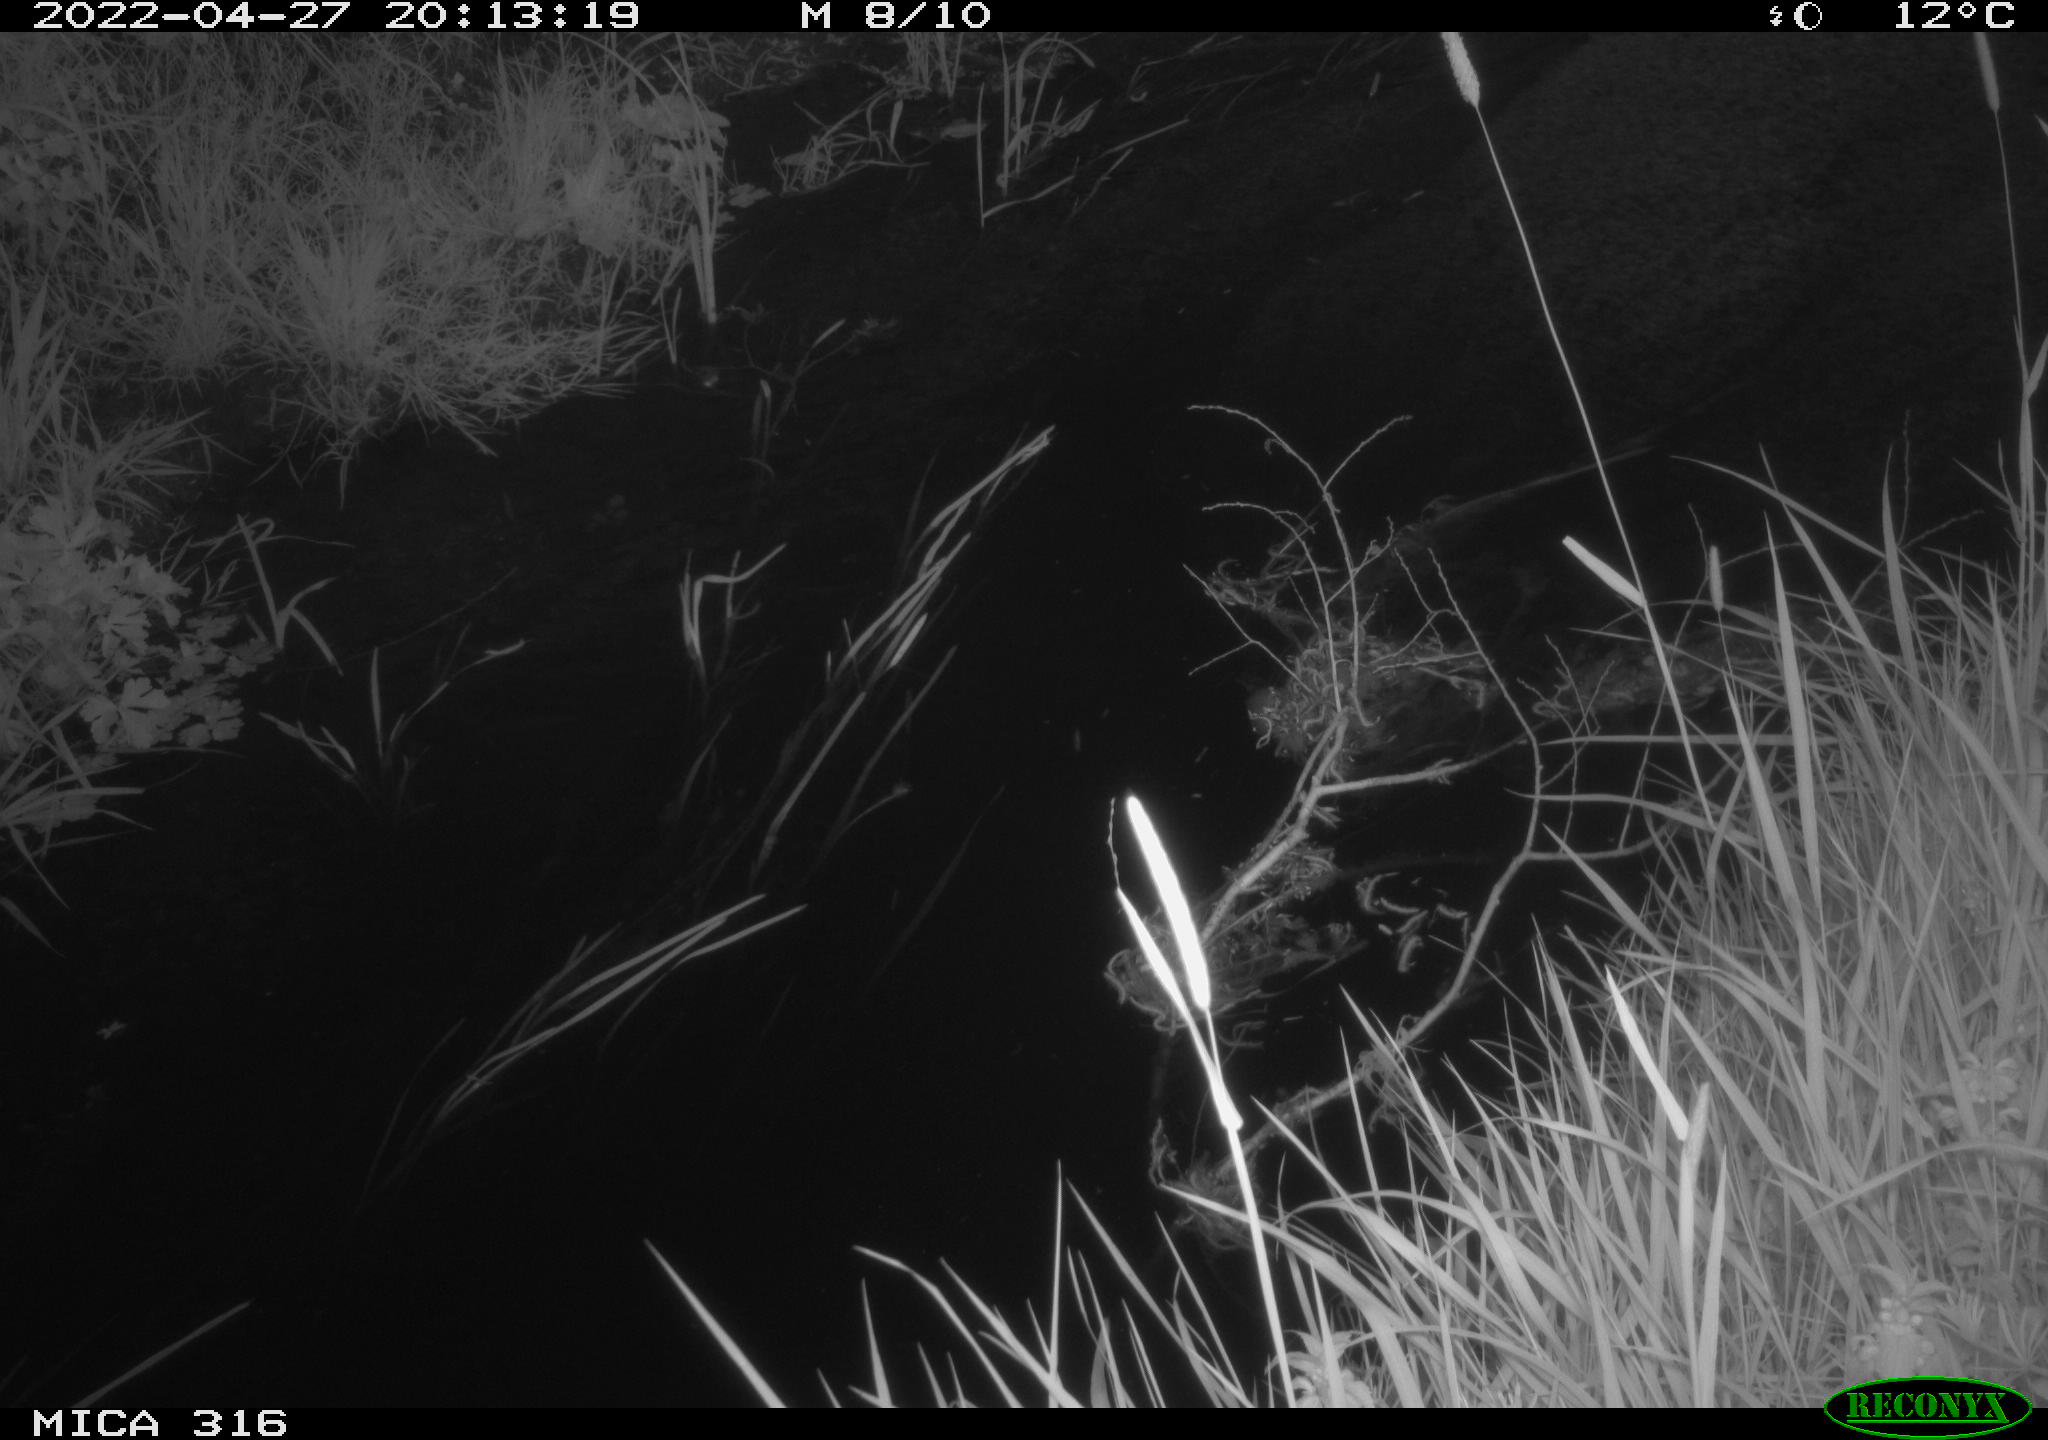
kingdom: Animalia
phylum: Chordata
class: Aves
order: Anseriformes
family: Anatidae
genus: Anas
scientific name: Anas platyrhynchos
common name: Mallard
